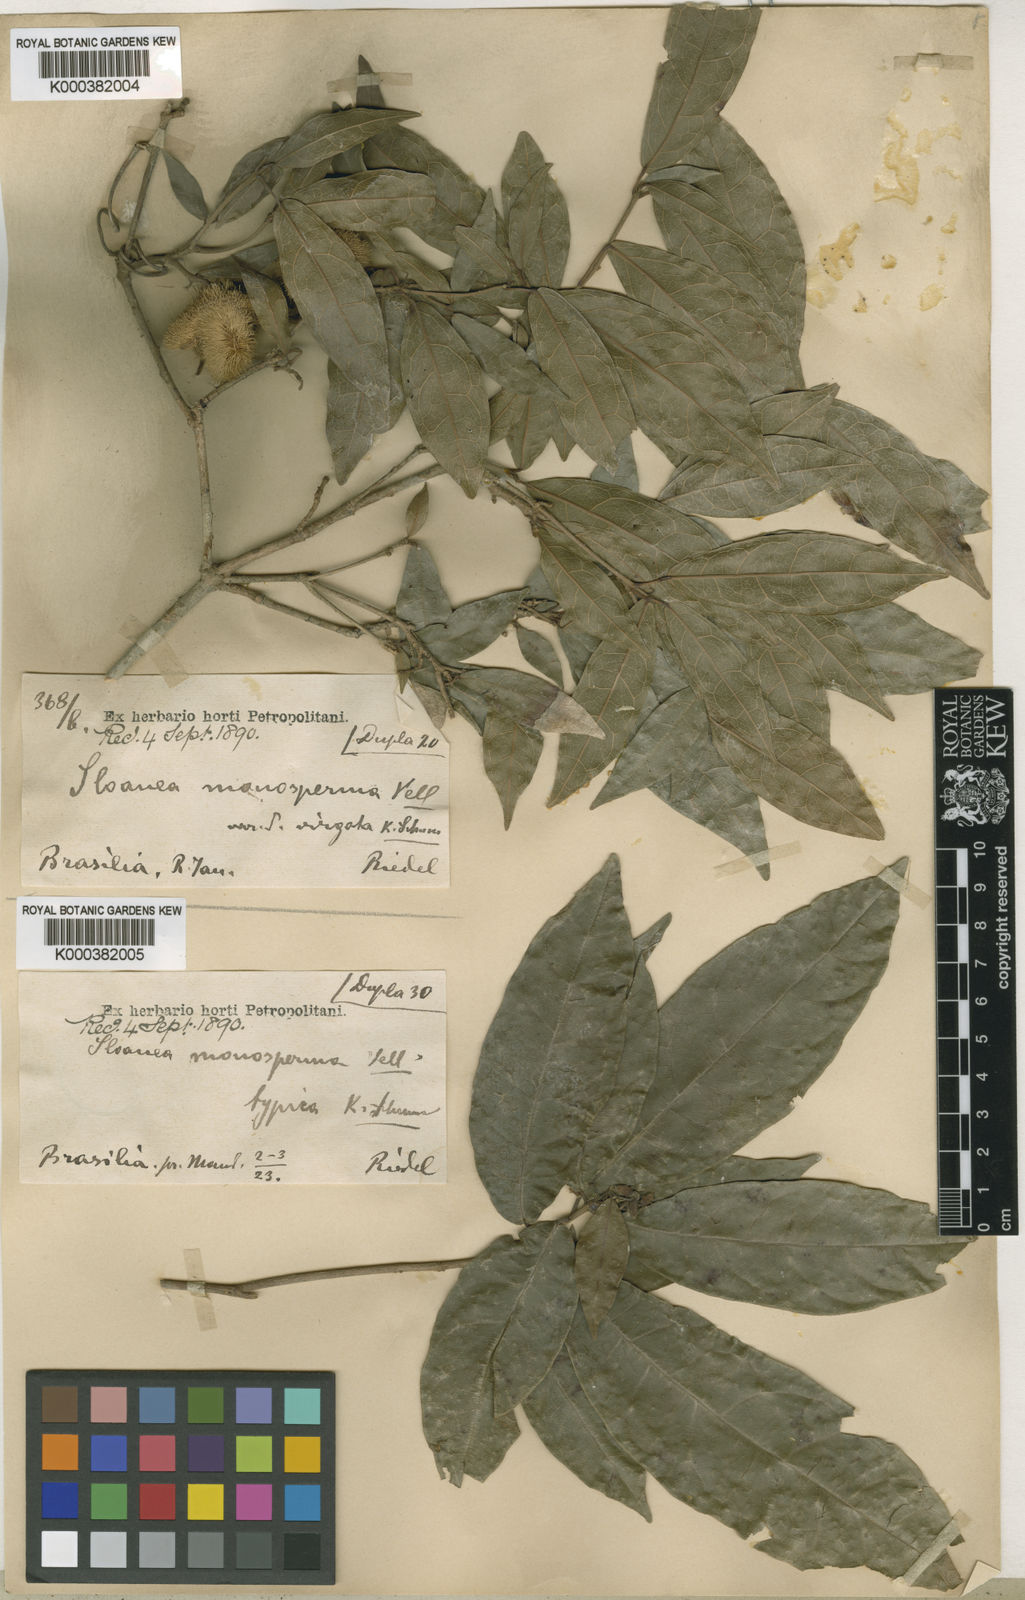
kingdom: Plantae
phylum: Tracheophyta
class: Magnoliopsida
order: Oxalidales
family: Elaeocarpaceae
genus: Sloanea
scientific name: Sloanea hirsuta
